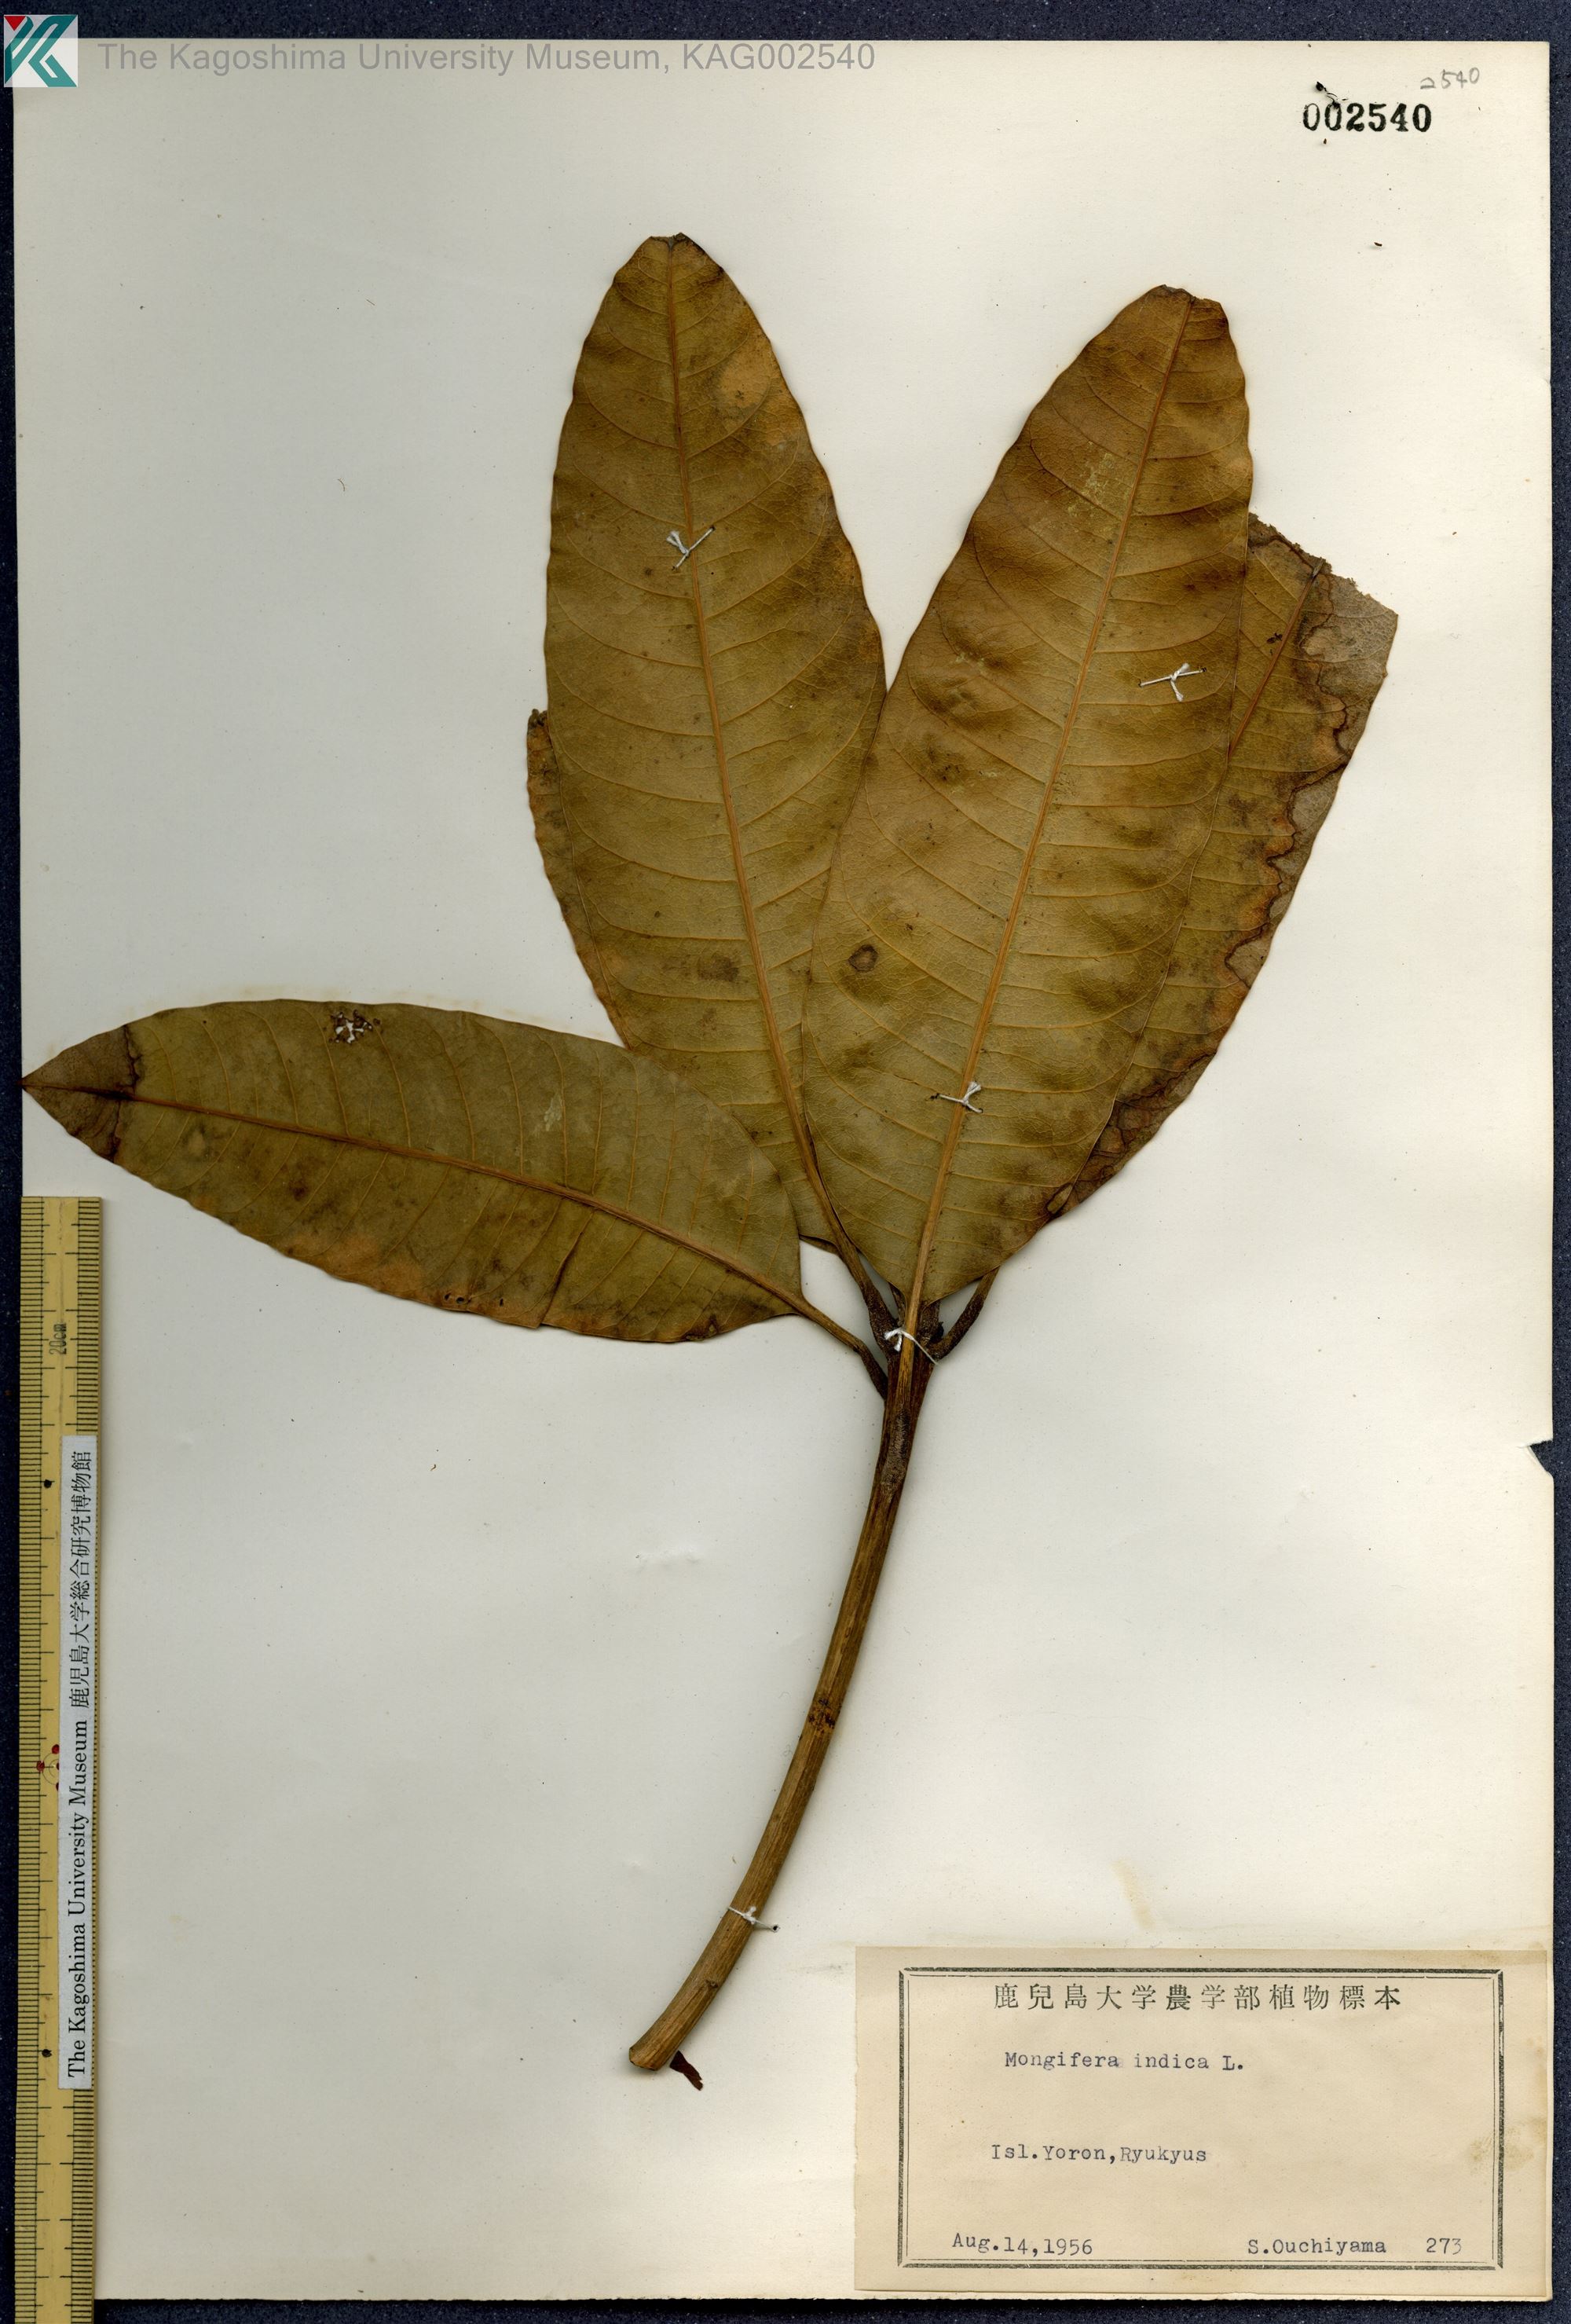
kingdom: Plantae
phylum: Tracheophyta
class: Magnoliopsida
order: Sapindales
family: Anacardiaceae
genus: Mangifera
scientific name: Mangifera indica
